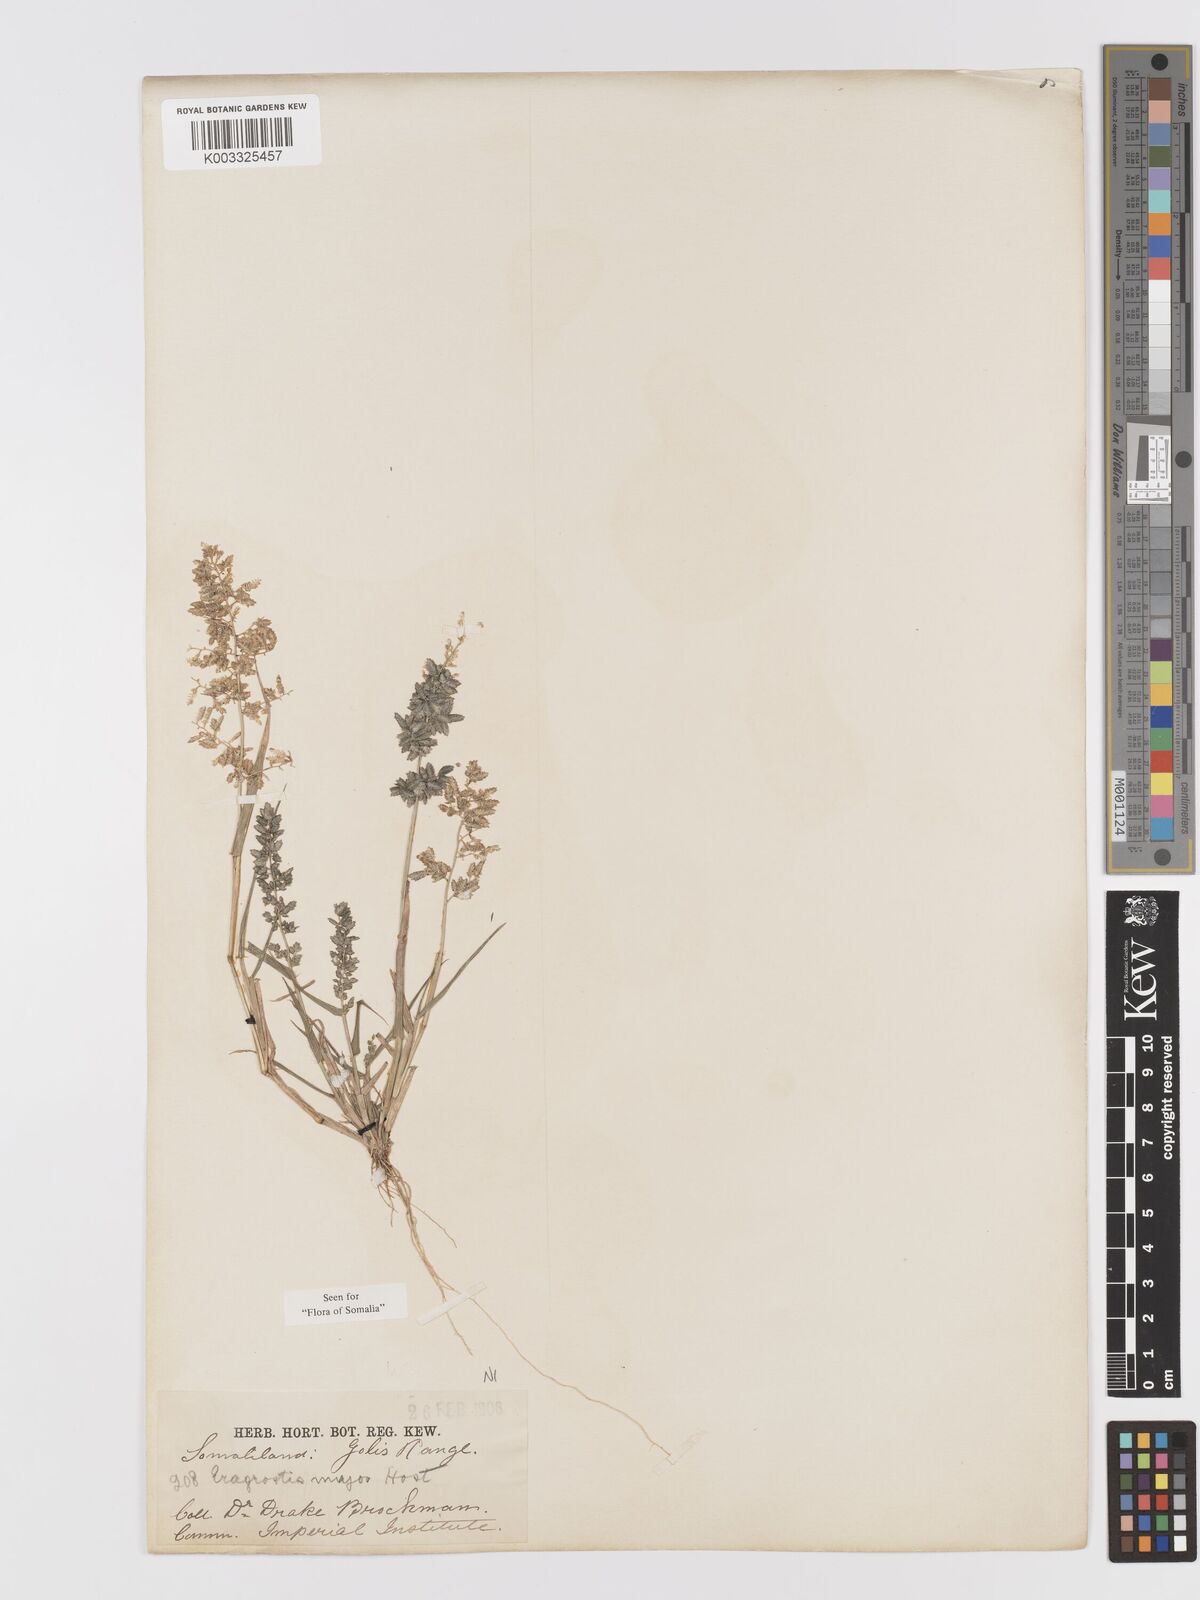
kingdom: Plantae
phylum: Tracheophyta
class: Liliopsida
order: Poales
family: Poaceae
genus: Eragrostis
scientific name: Eragrostis cilianensis
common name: Stinkgrass
